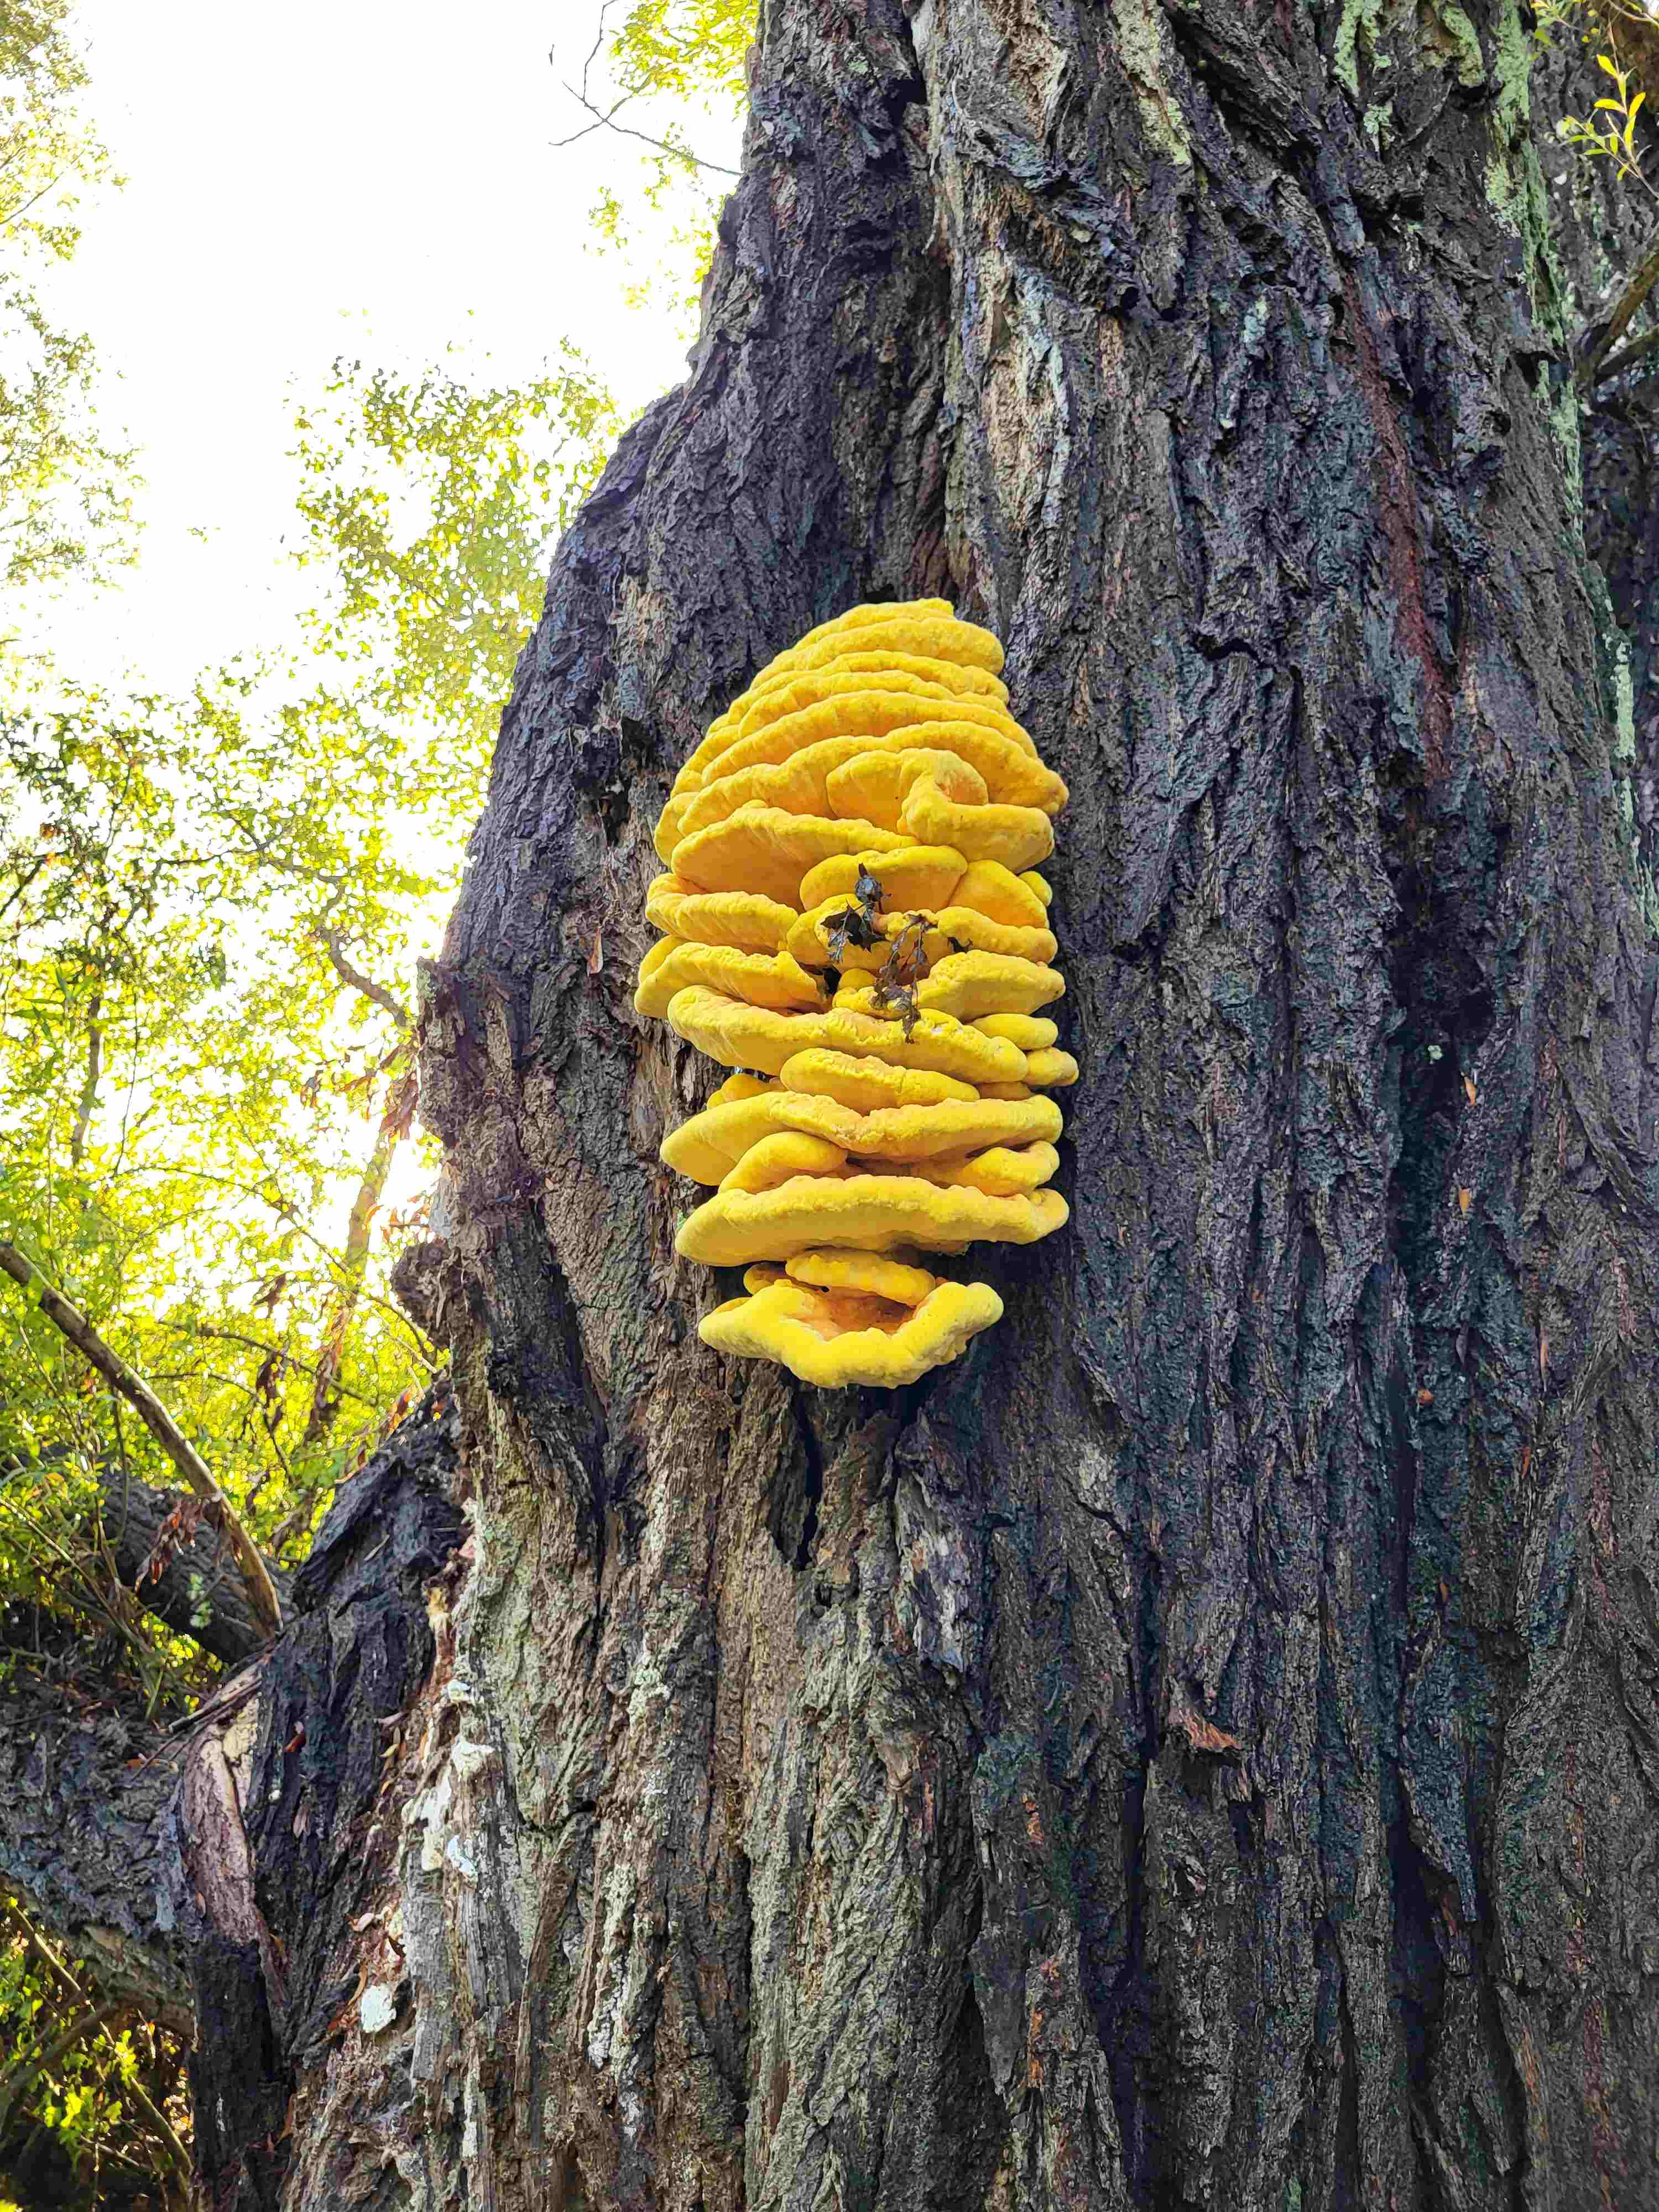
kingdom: Fungi
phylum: Basidiomycota
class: Agaricomycetes
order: Polyporales
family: Laetiporaceae
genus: Laetiporus
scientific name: Laetiporus sulphureus
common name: svovlporesvamp
